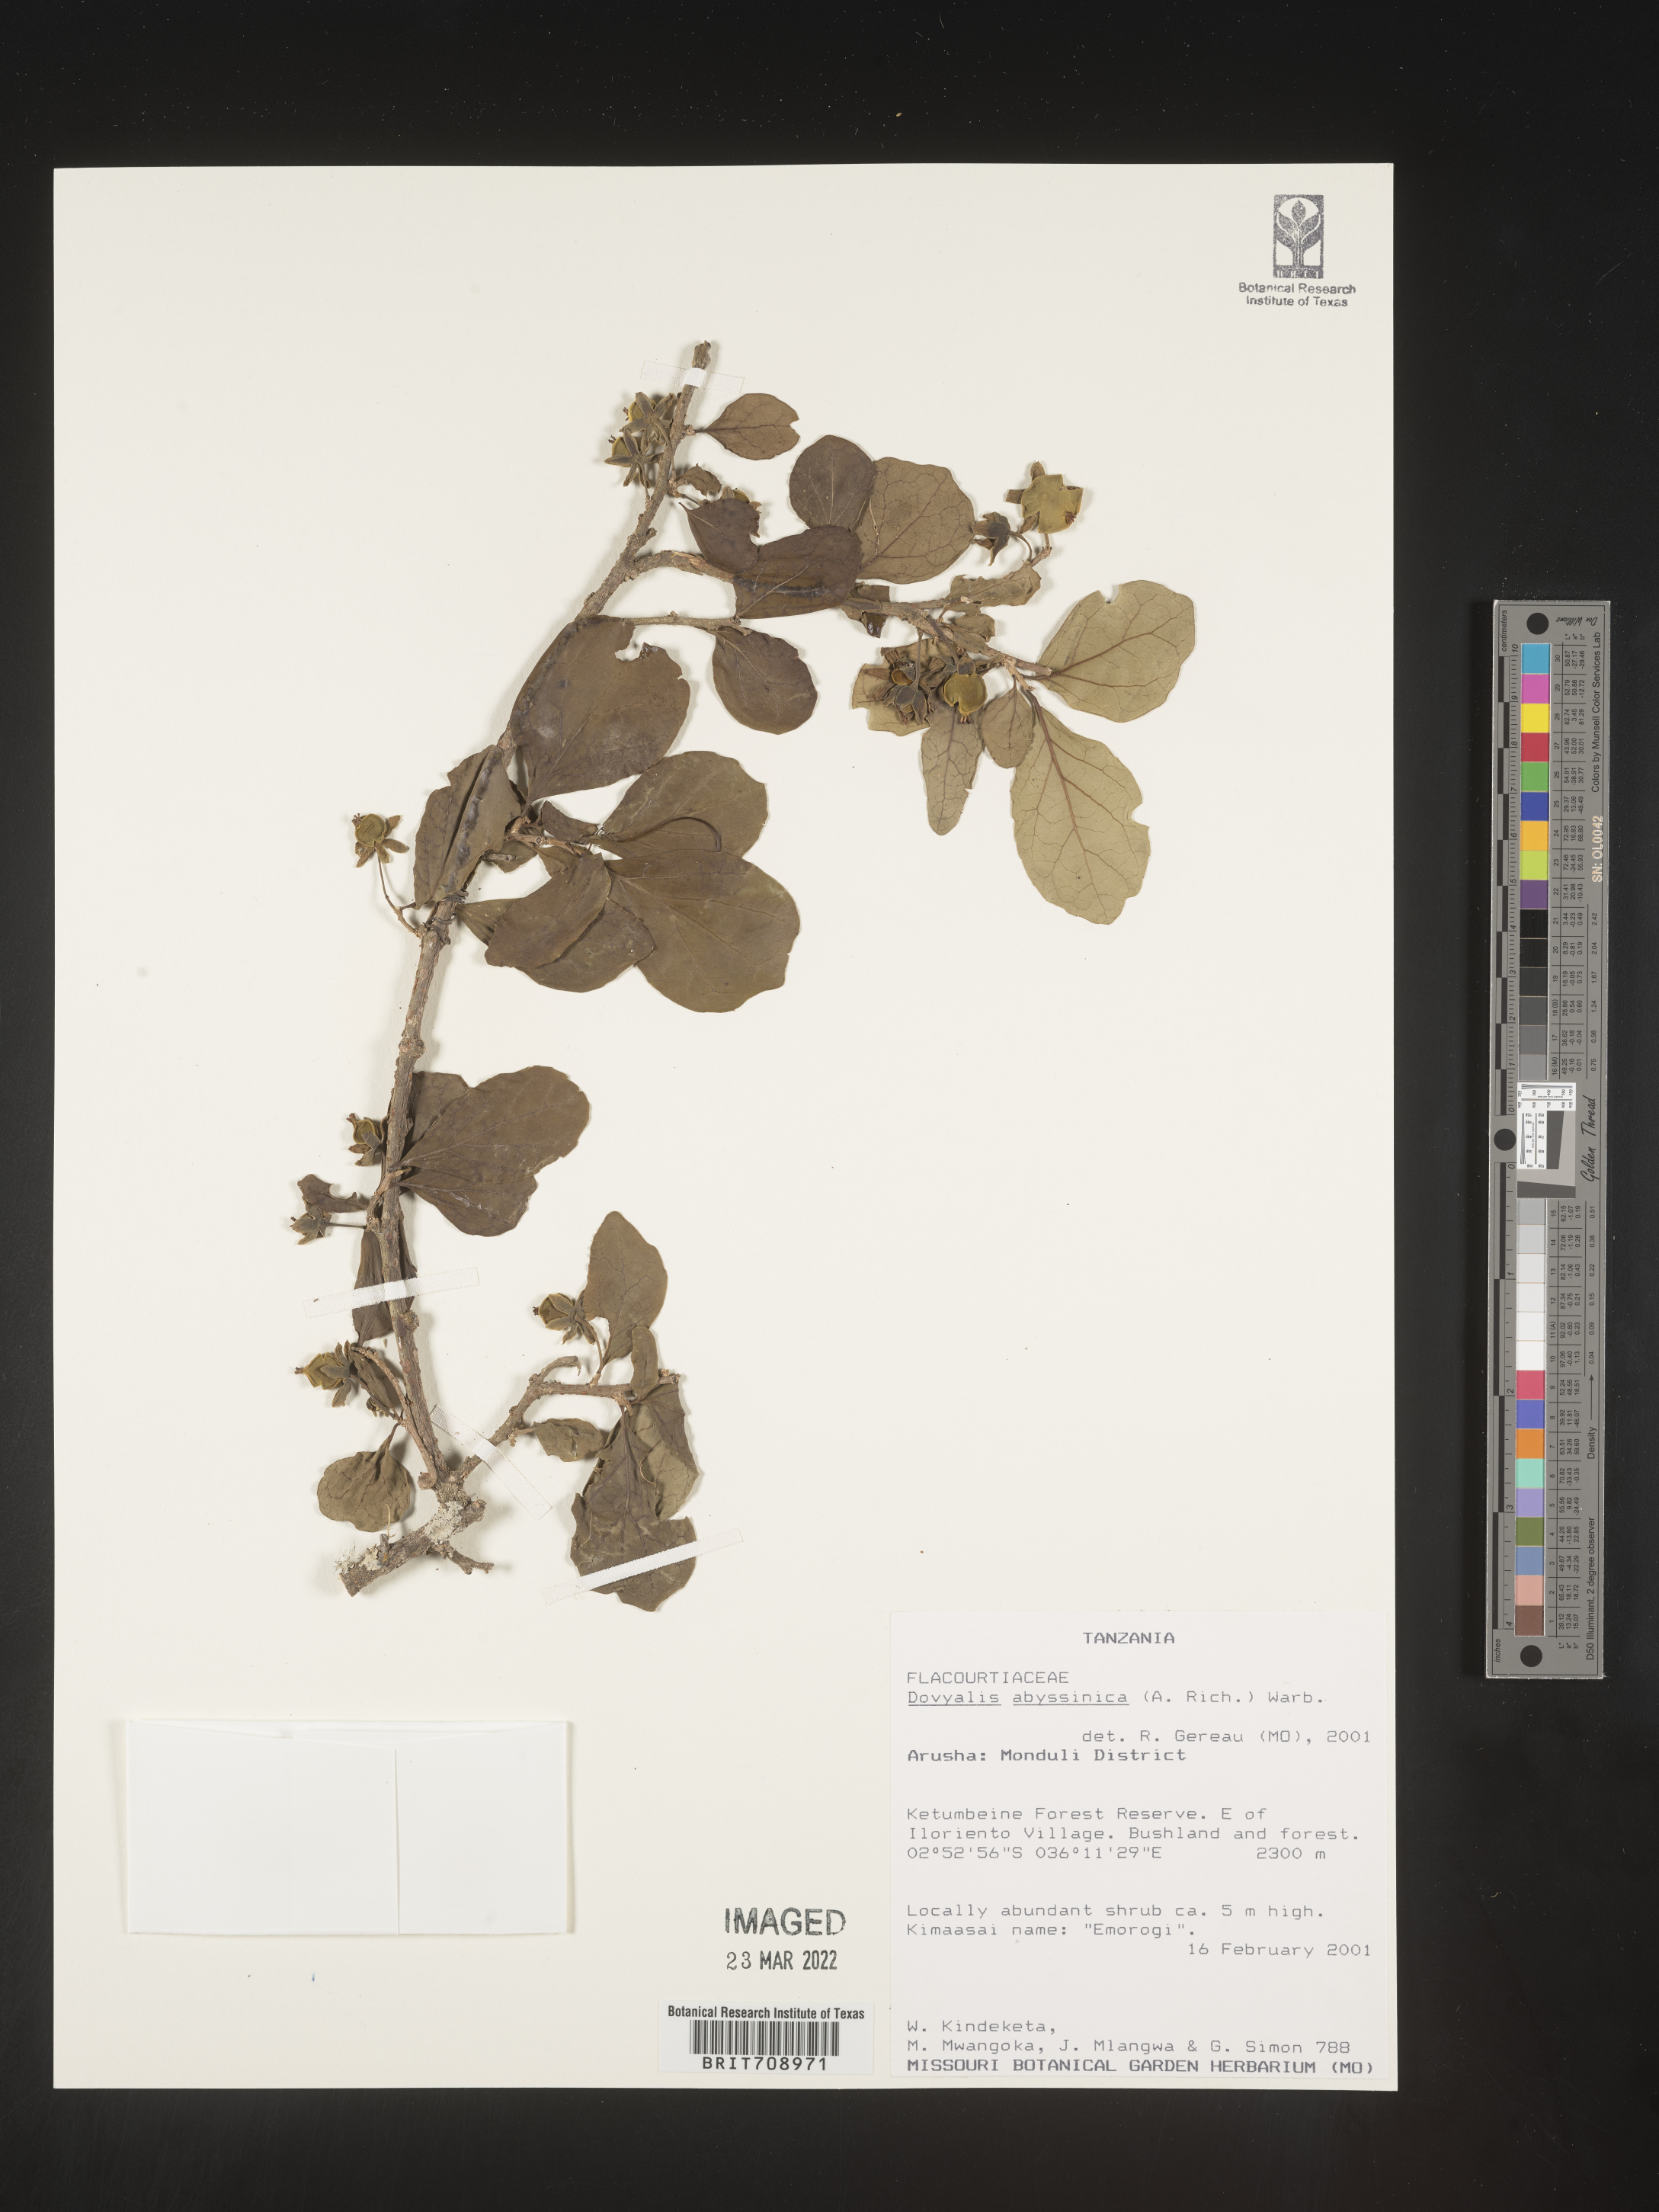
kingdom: Plantae
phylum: Tracheophyta
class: Magnoliopsida
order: Malpighiales
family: Salicaceae
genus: Dovyalis
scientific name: Dovyalis
